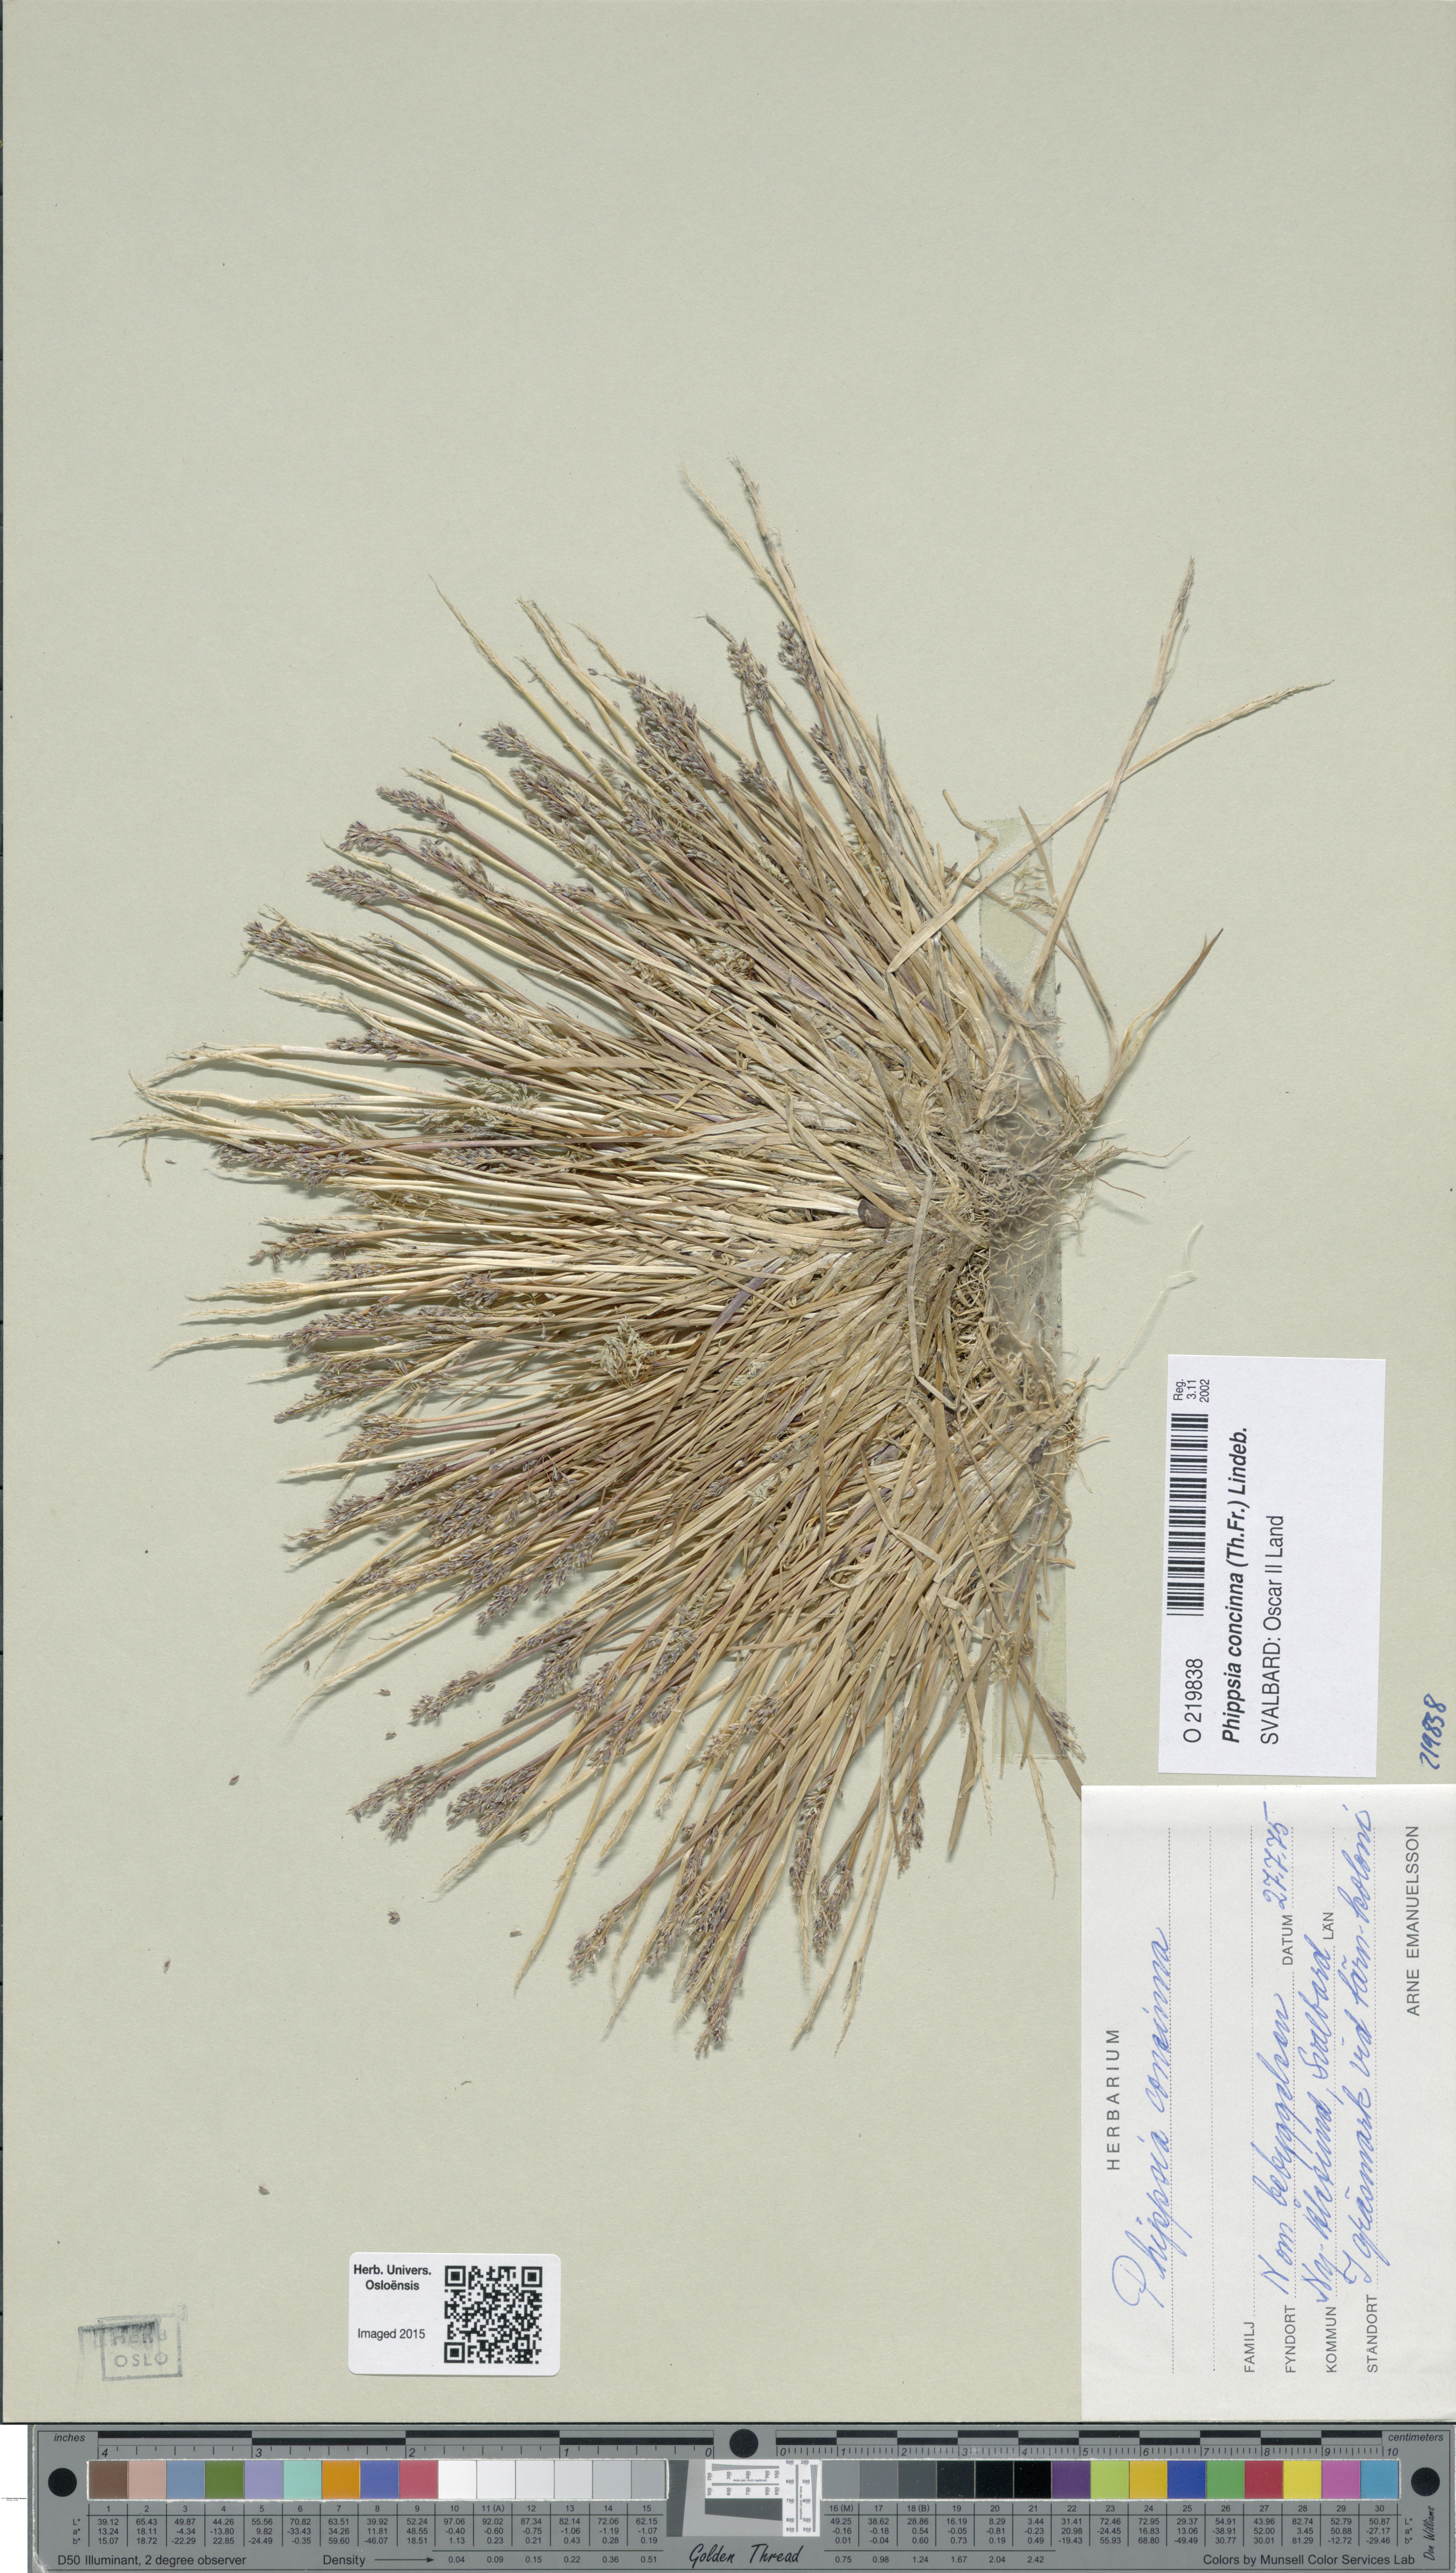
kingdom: Plantae
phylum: Tracheophyta
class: Liliopsida
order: Poales
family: Poaceae
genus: Phippsia
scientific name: Phippsia concinna
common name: Snowgrass
